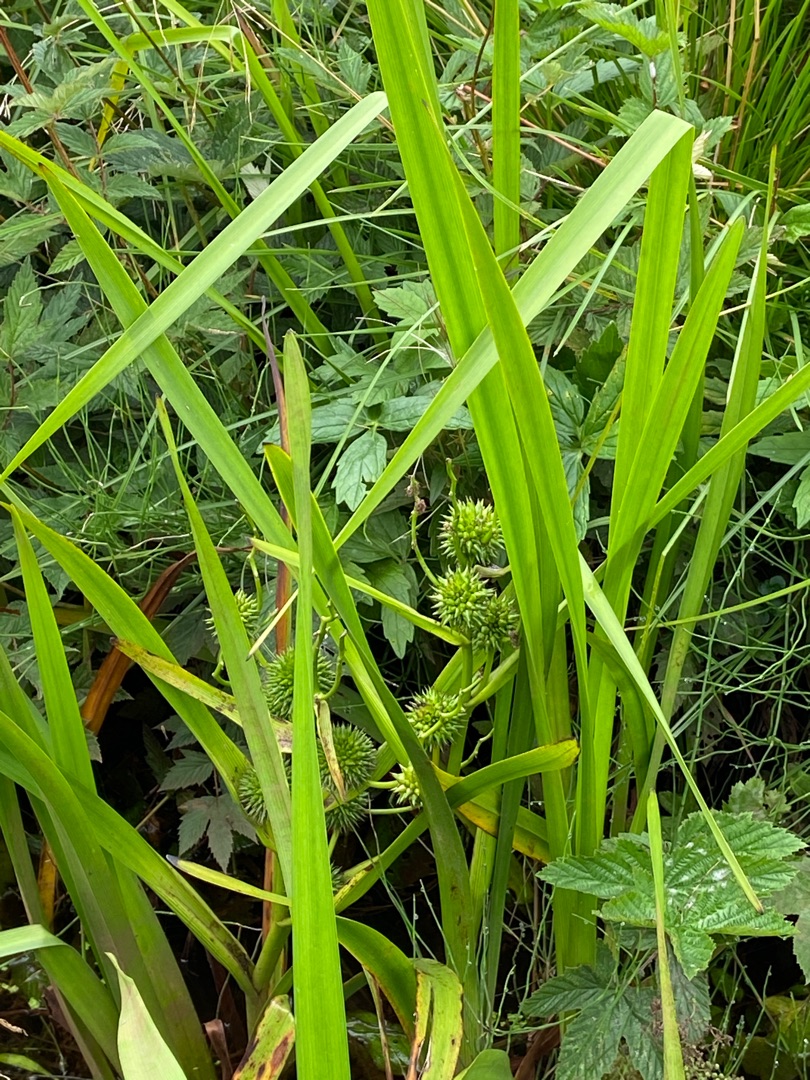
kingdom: Plantae
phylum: Tracheophyta
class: Liliopsida
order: Poales
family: Typhaceae
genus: Sparganium
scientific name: Sparganium erectum
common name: Grenet pindsvineknop
